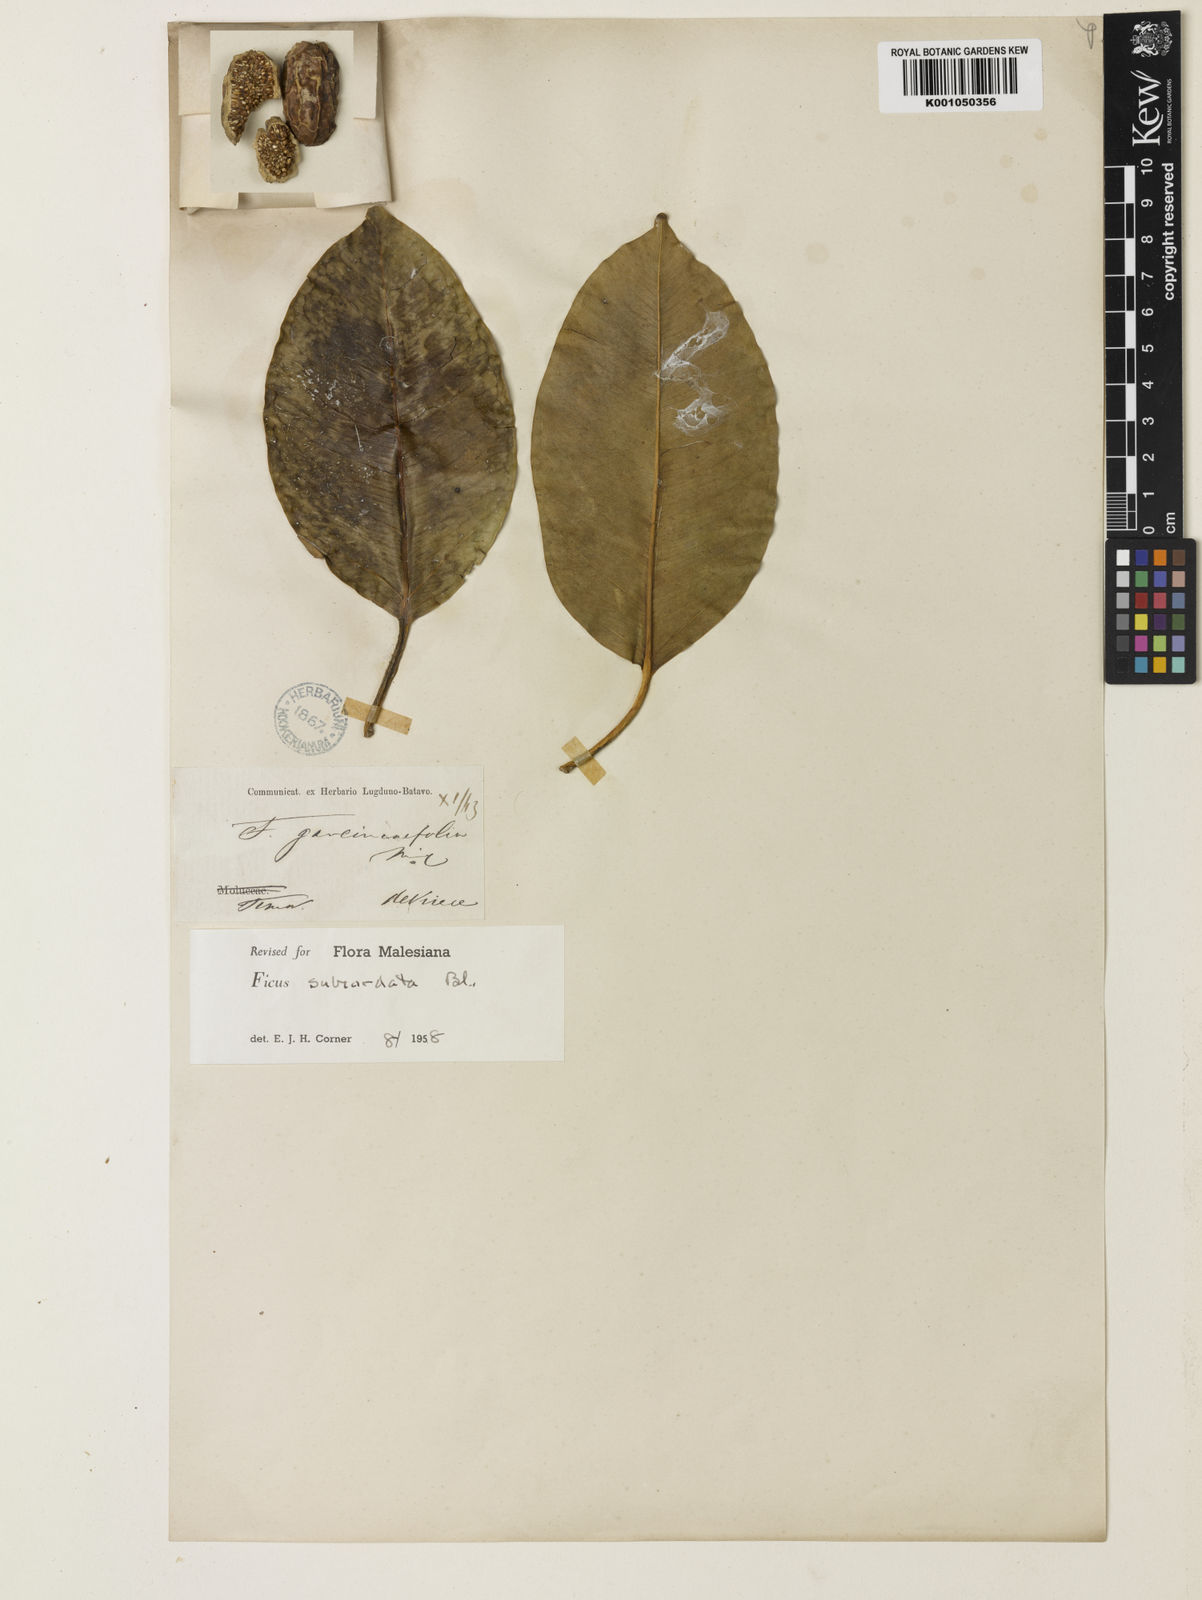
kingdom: Plantae
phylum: Tracheophyta
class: Magnoliopsida
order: Rosales
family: Moraceae
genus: Ficus
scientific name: Ficus subcordata
